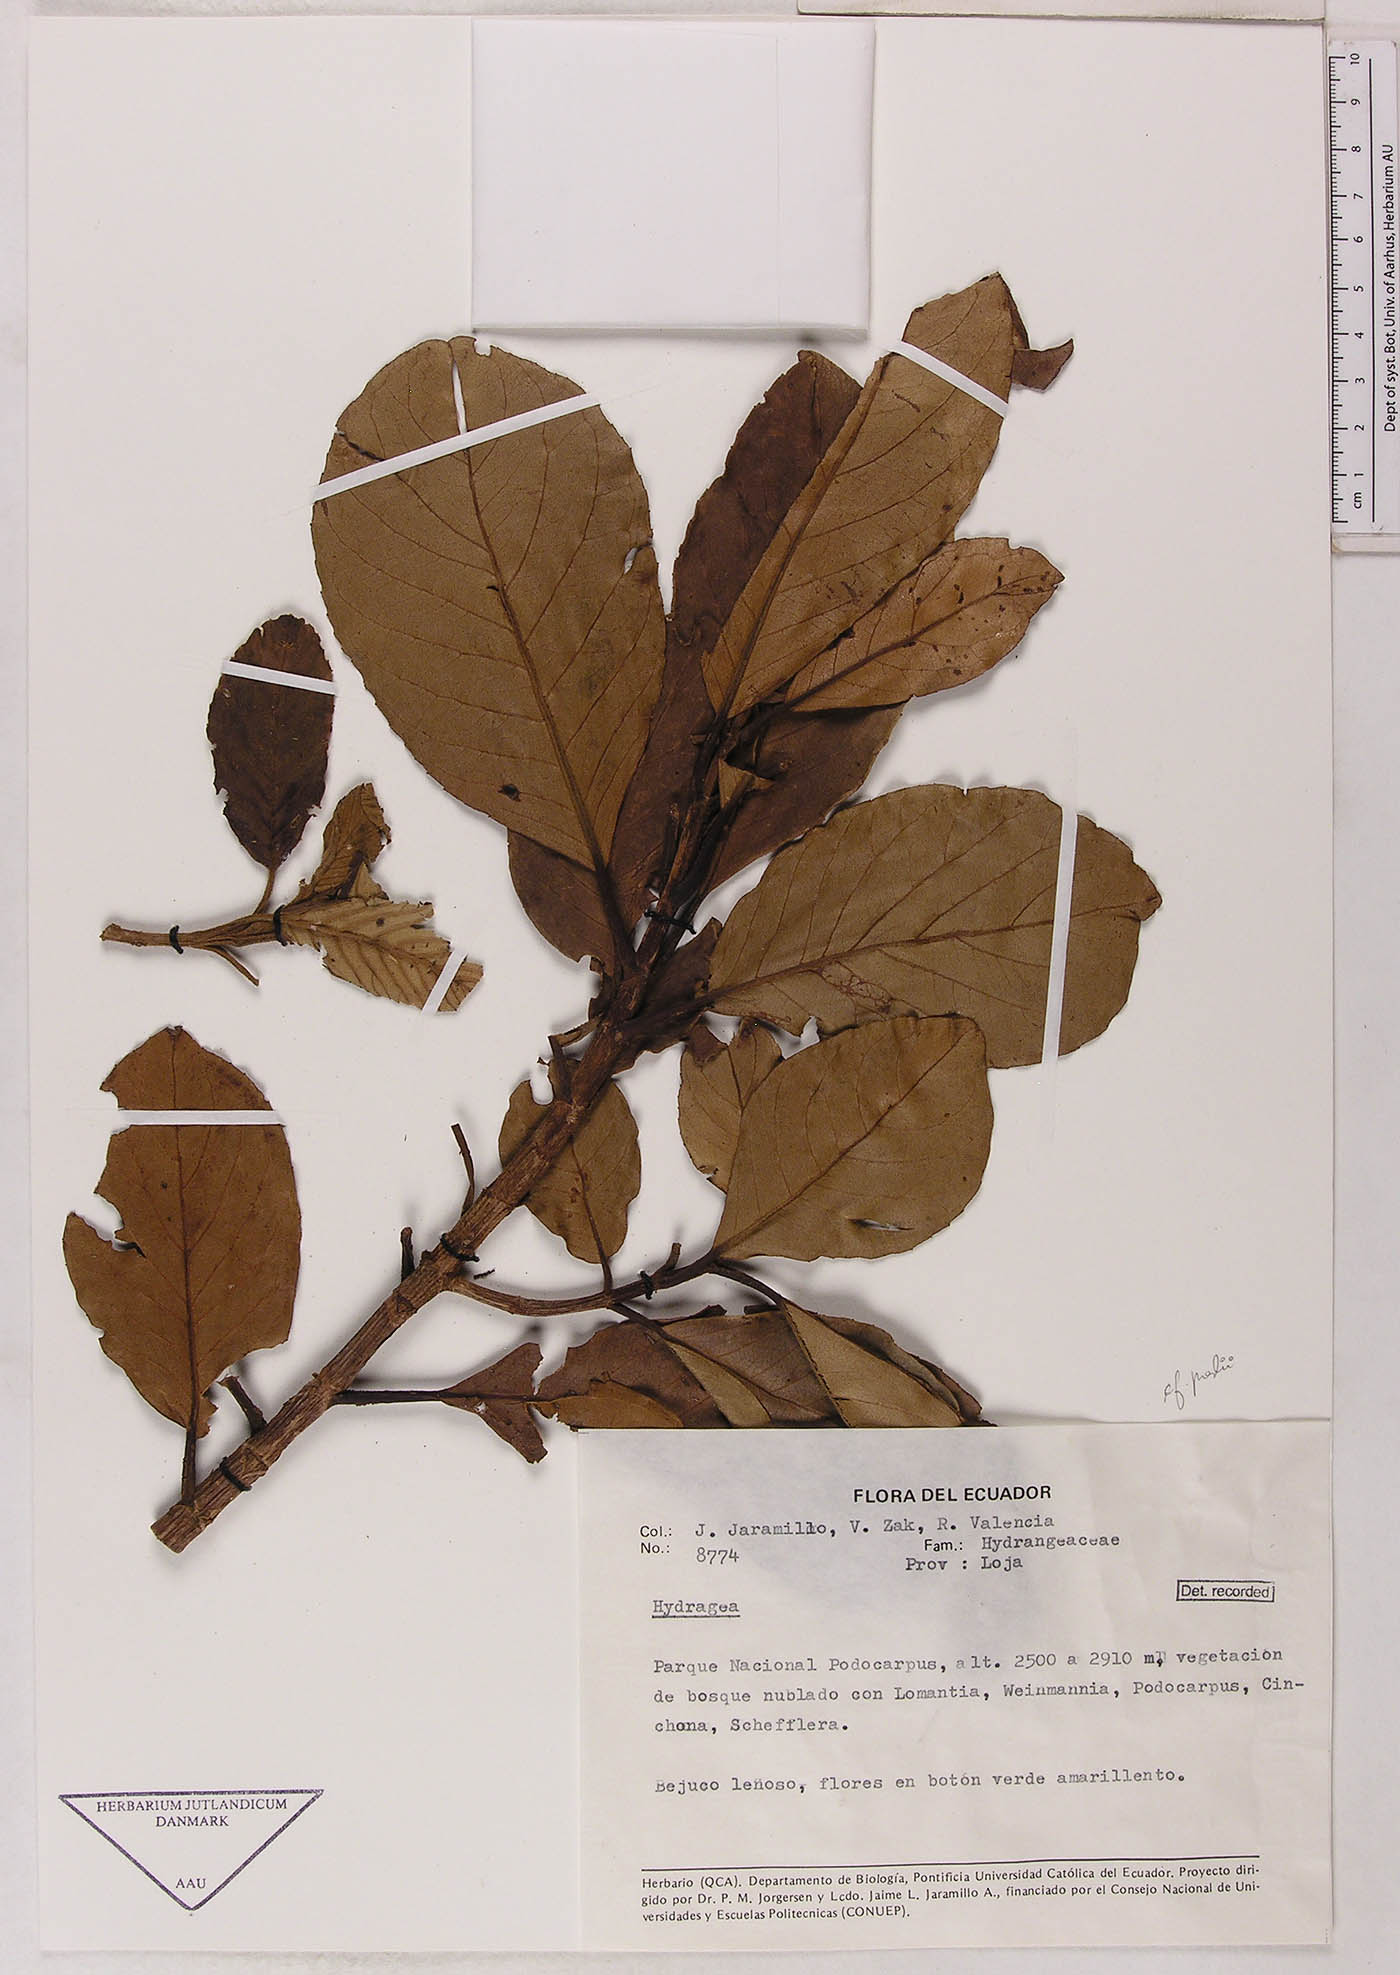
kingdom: Plantae
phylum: Tracheophyta
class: Magnoliopsida
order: Cornales
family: Hydrangeaceae
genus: Hydrangea
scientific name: Hydrangea
